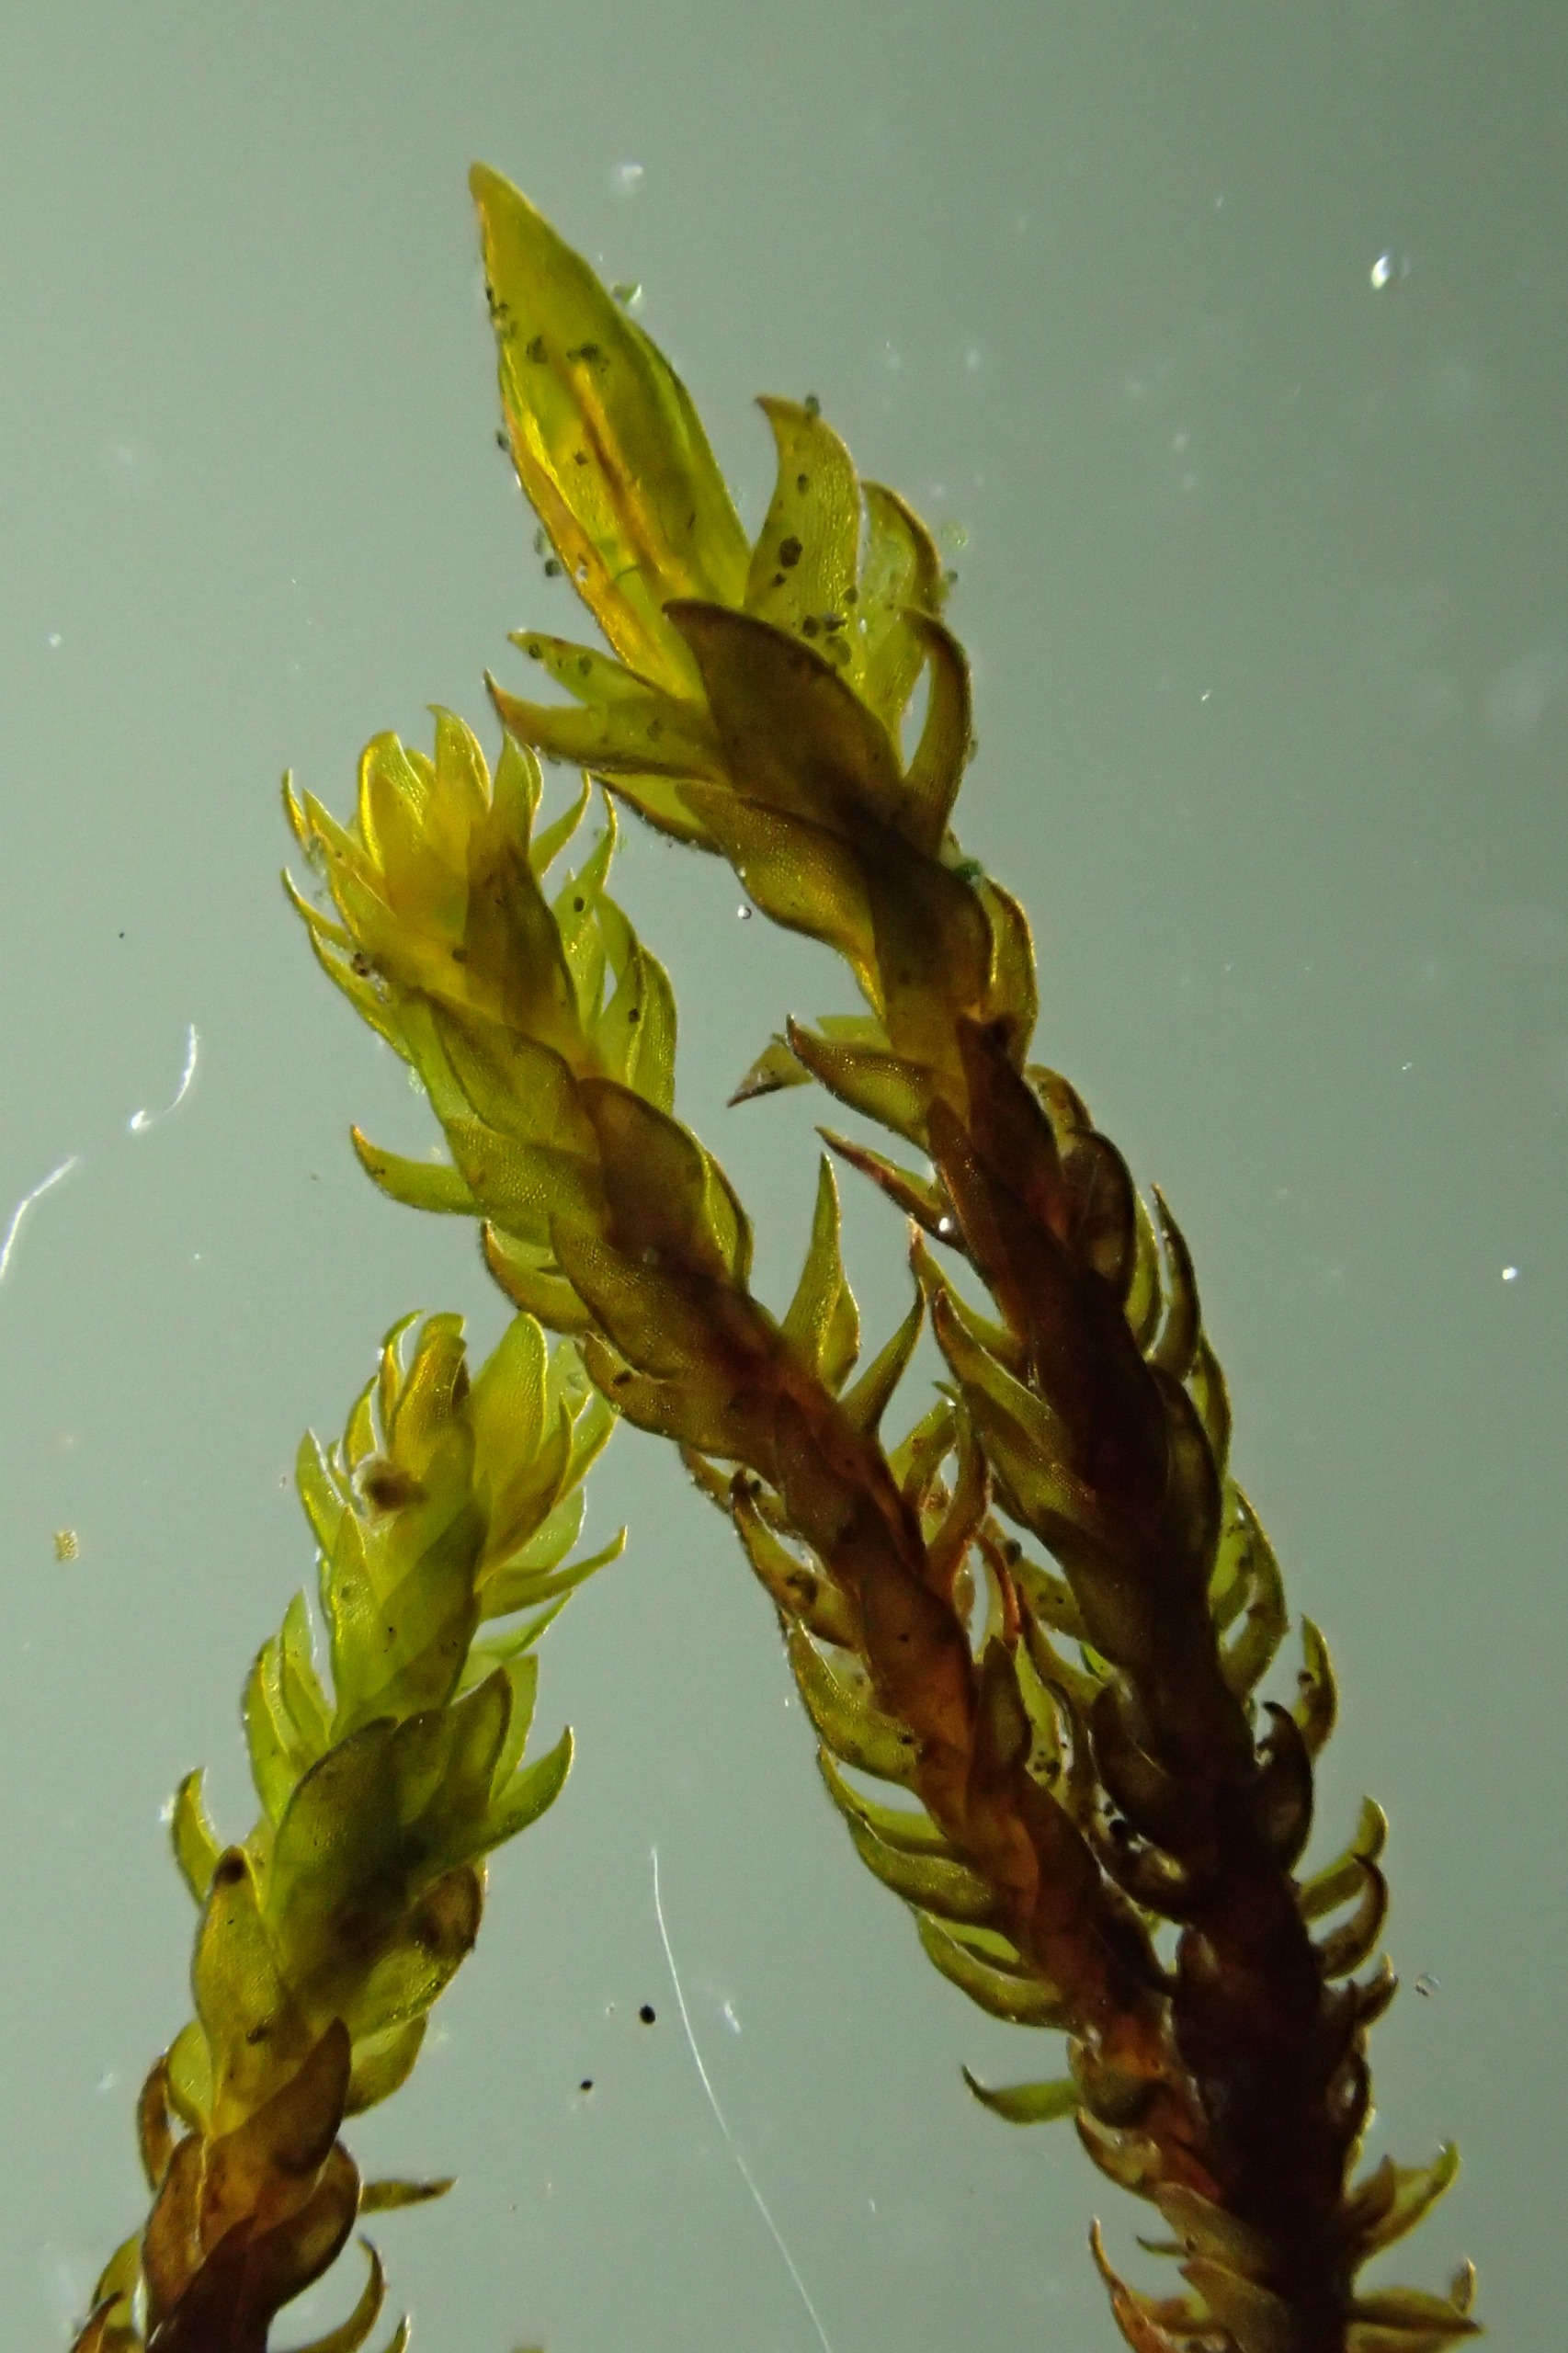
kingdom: Plantae
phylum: Bryophyta
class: Andreaeopsida
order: Andreaeales
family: Andreaeaceae
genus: Andreaea
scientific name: Andreaea rupestris
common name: Lille sortmos
